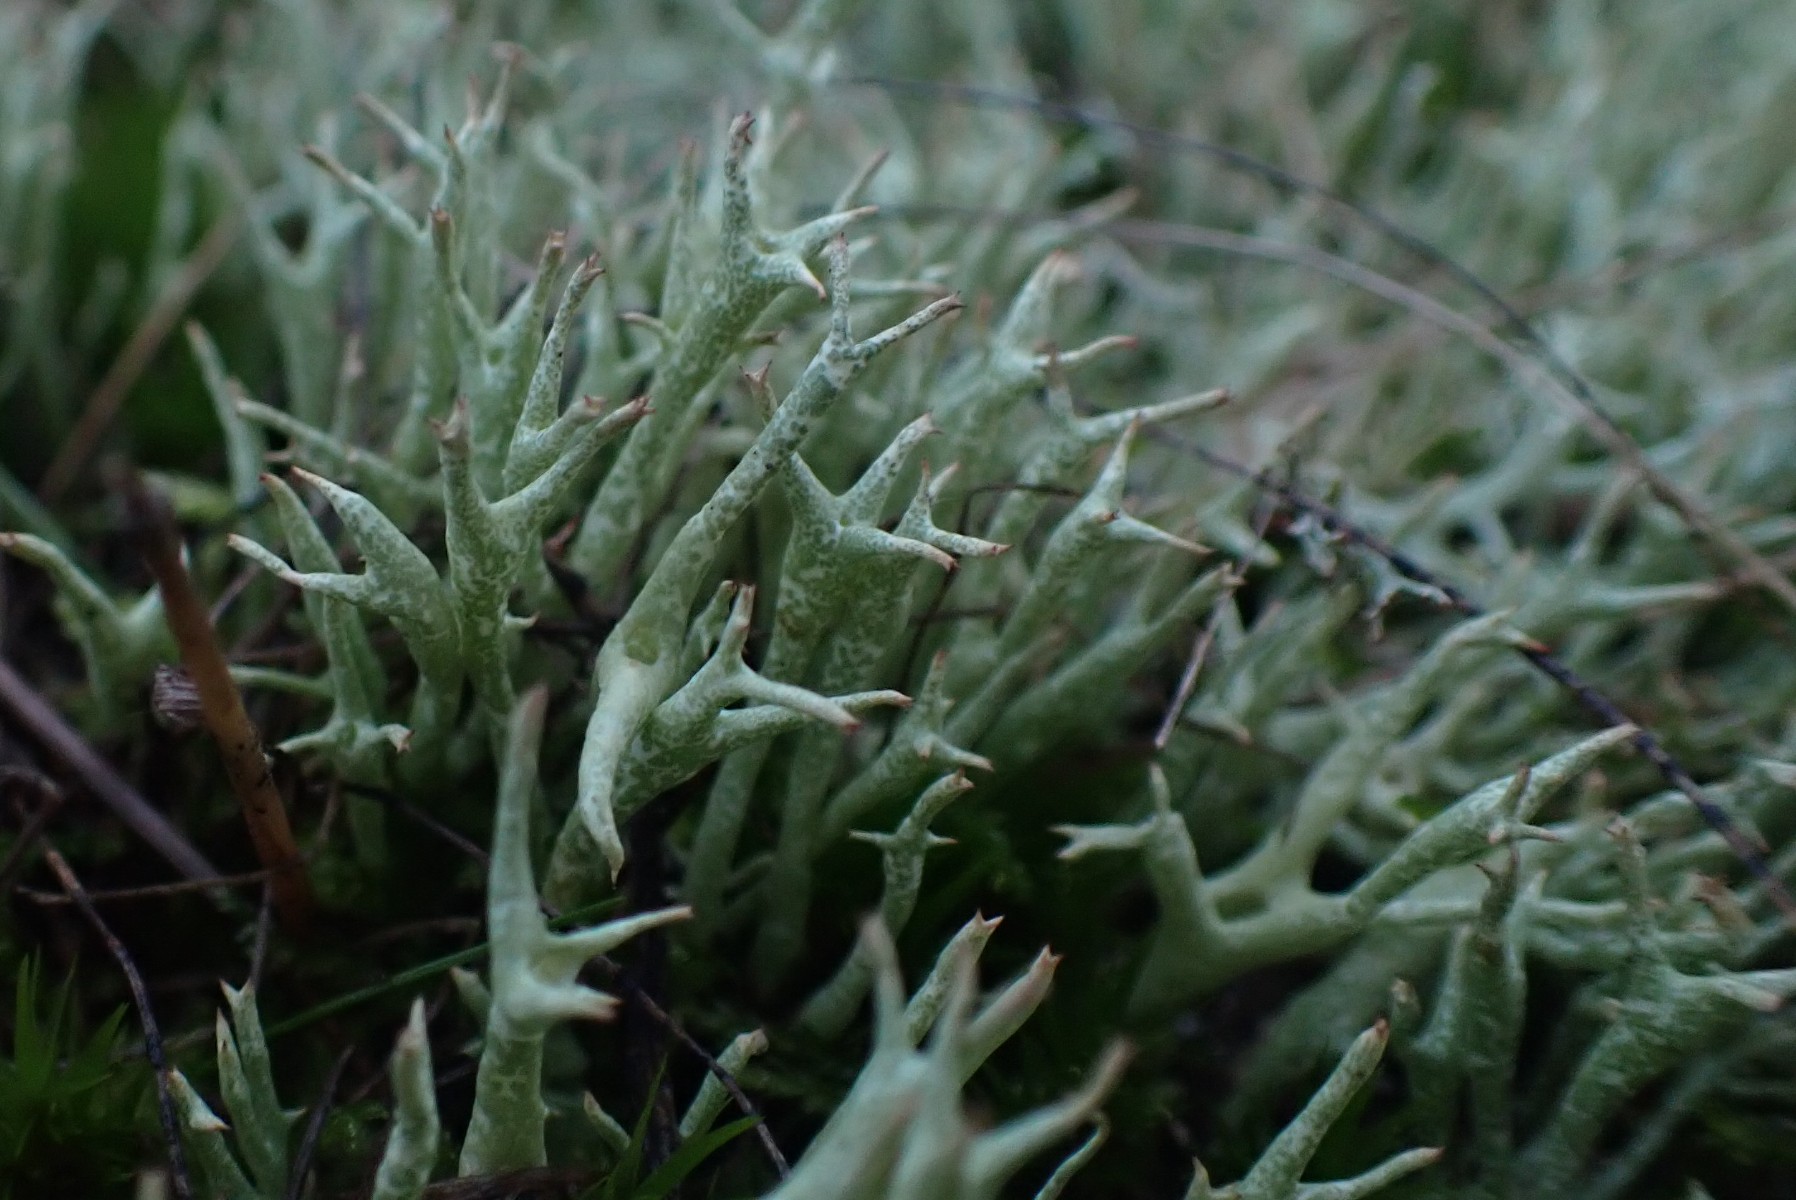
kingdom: Fungi
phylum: Ascomycota
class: Lecanoromycetes
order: Lecanorales
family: Cladoniaceae
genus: Cladonia
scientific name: Cladonia uncialis
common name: pigget bægerlav
